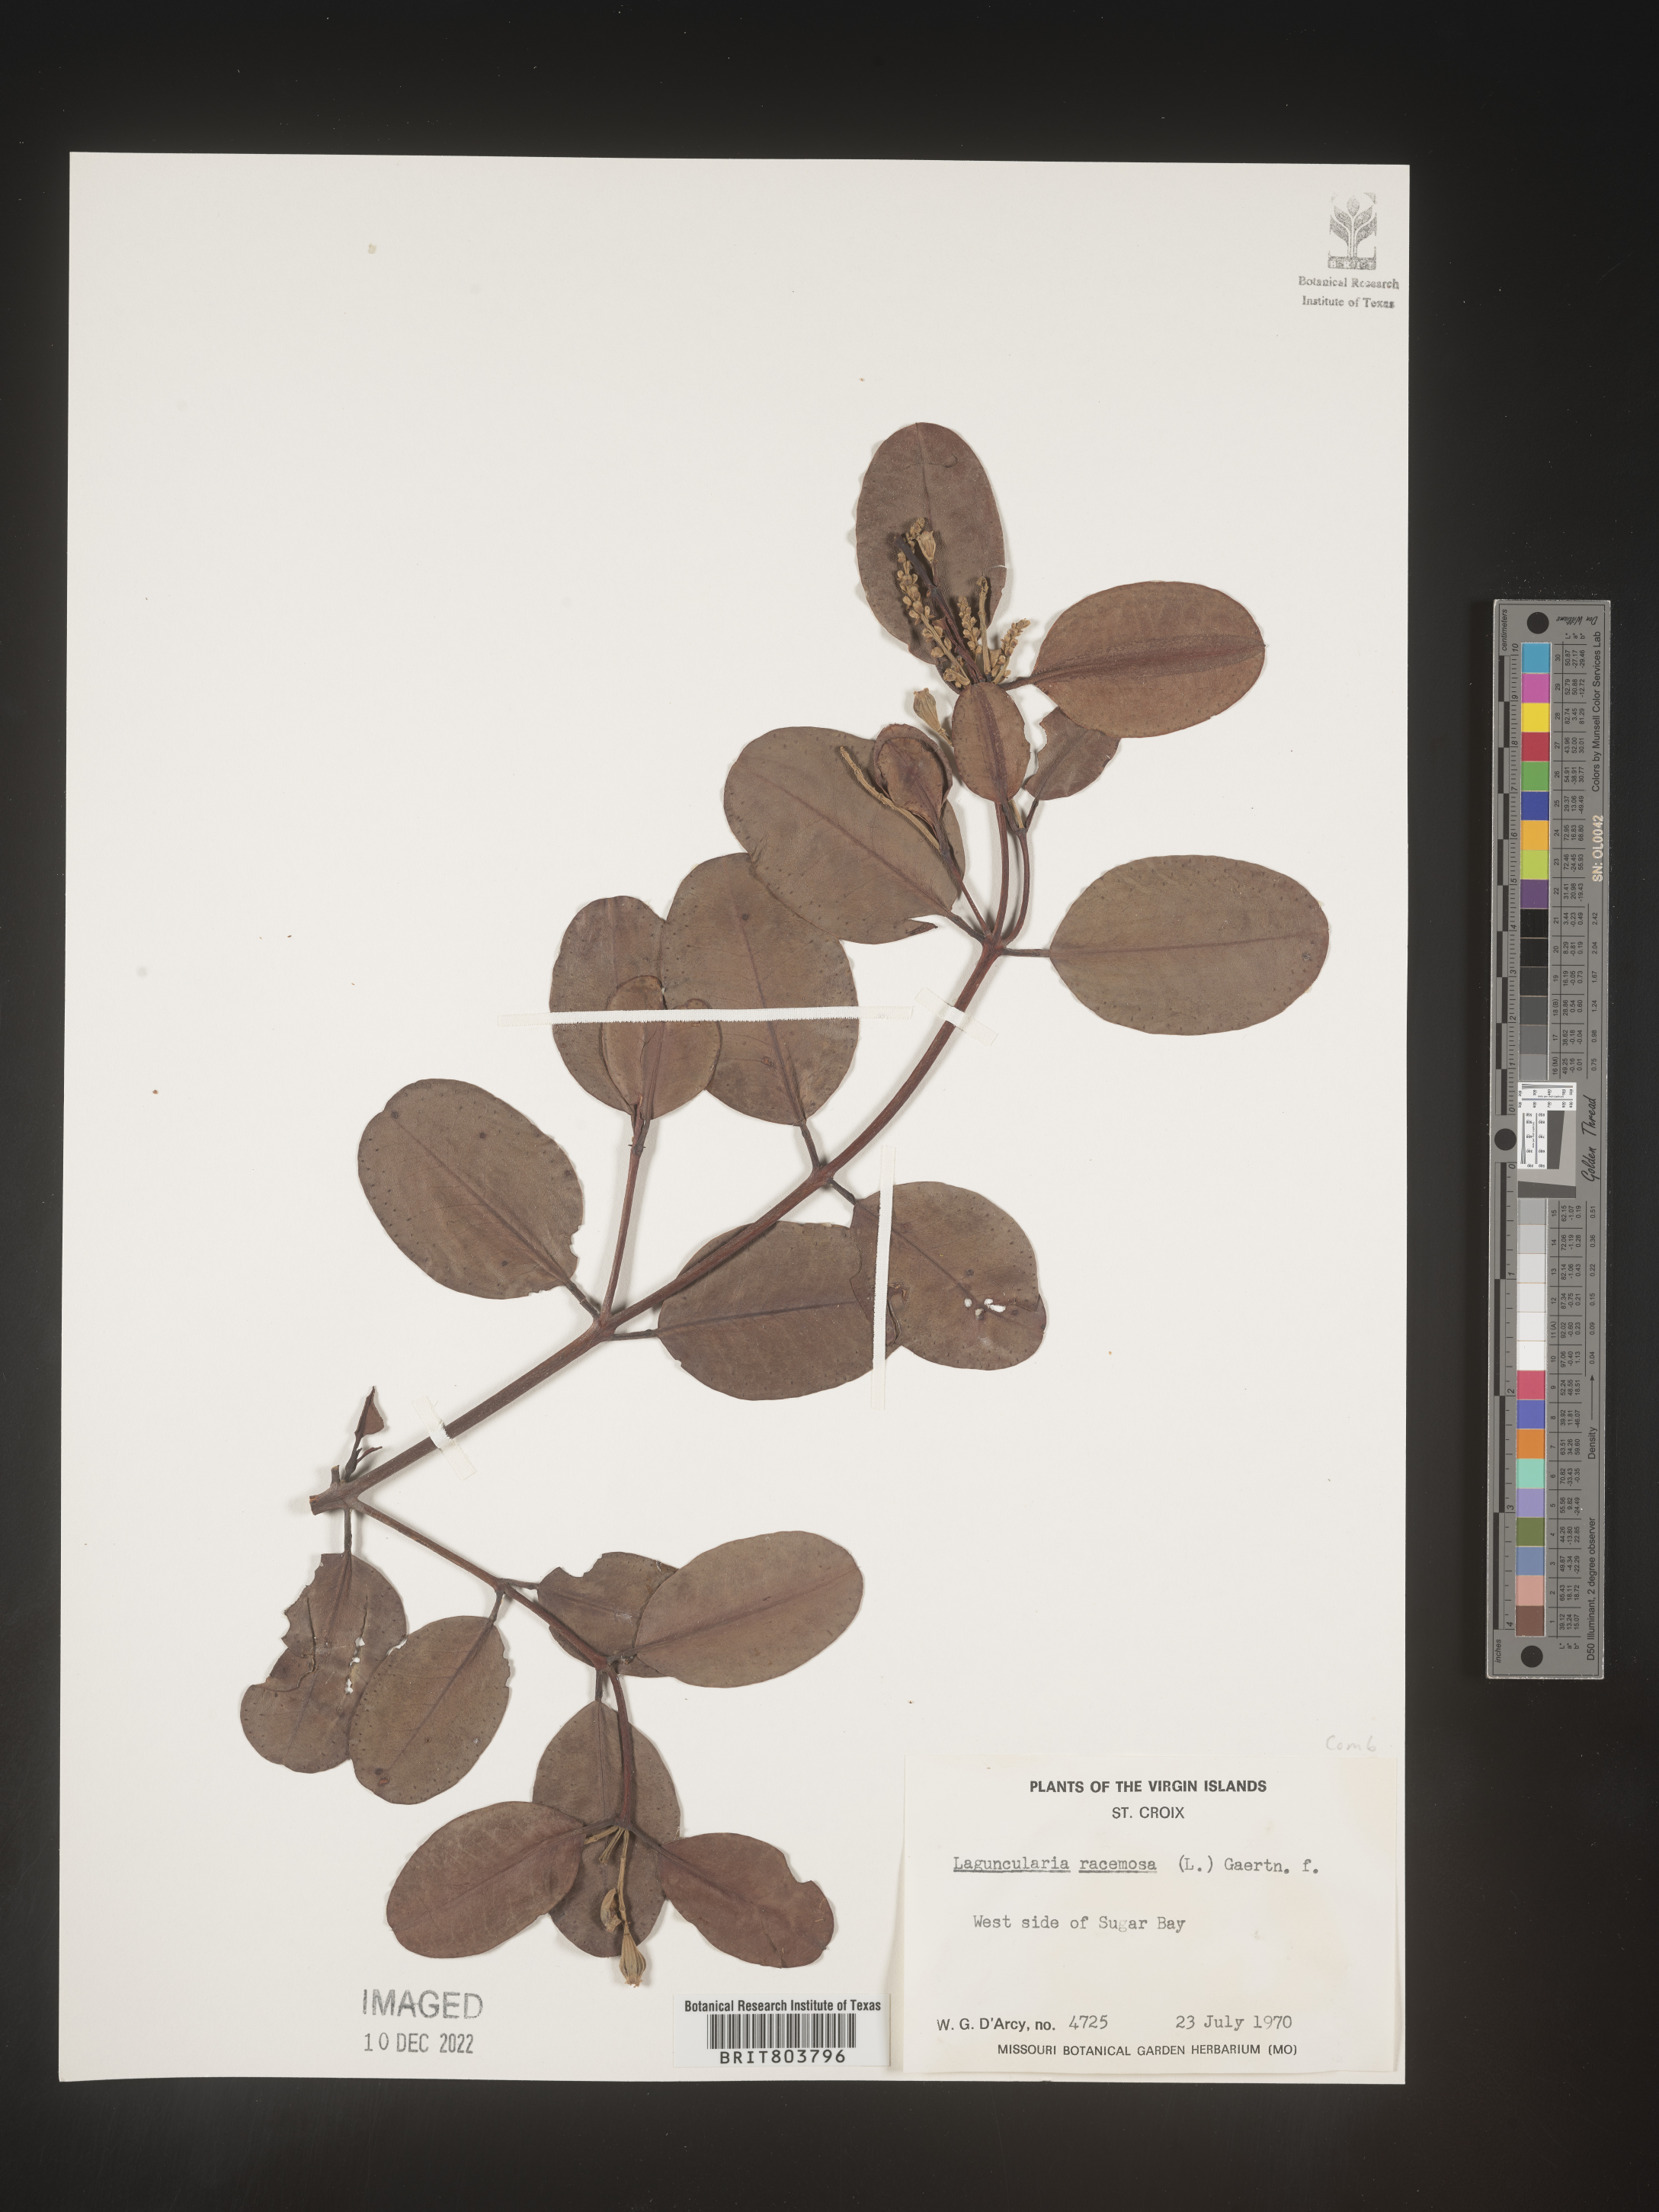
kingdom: Plantae
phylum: Tracheophyta
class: Magnoliopsida
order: Myrtales
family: Combretaceae
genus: Laguncularia
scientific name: Laguncularia
